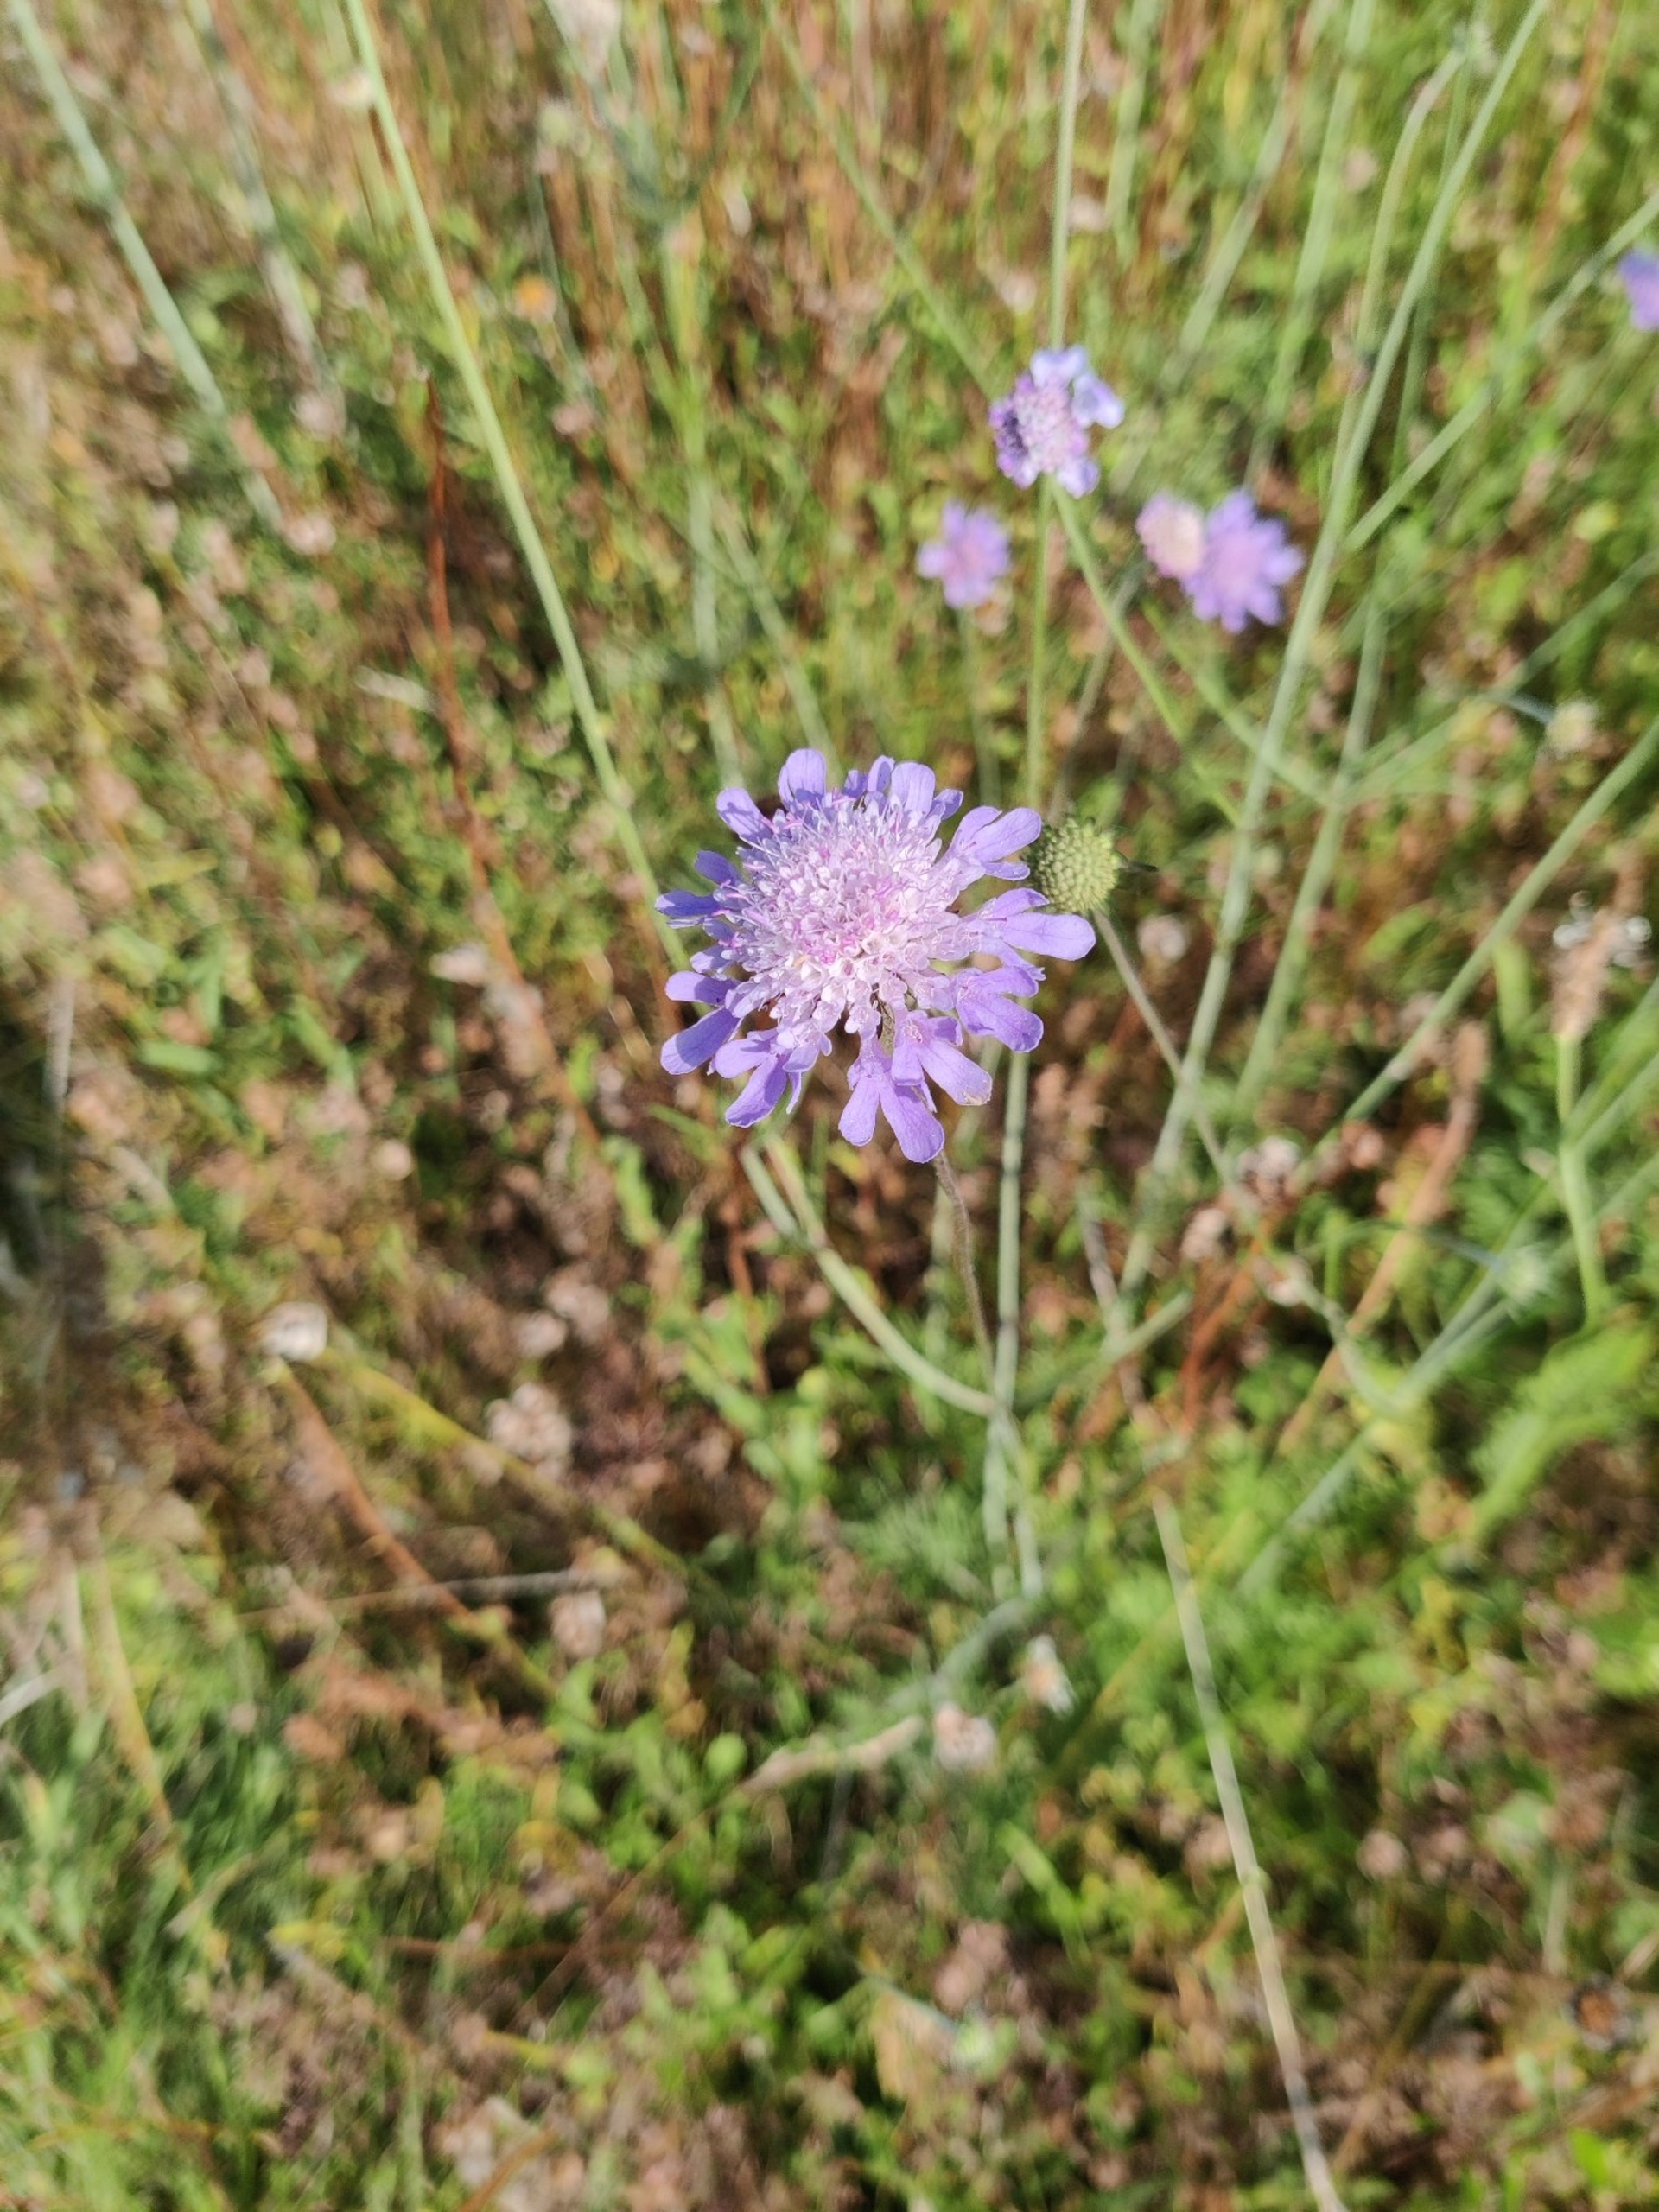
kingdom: Plantae
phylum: Tracheophyta
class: Magnoliopsida
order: Dipsacales
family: Caprifoliaceae
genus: Scabiosa
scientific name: Scabiosa columbaria
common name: Due-skabiose
